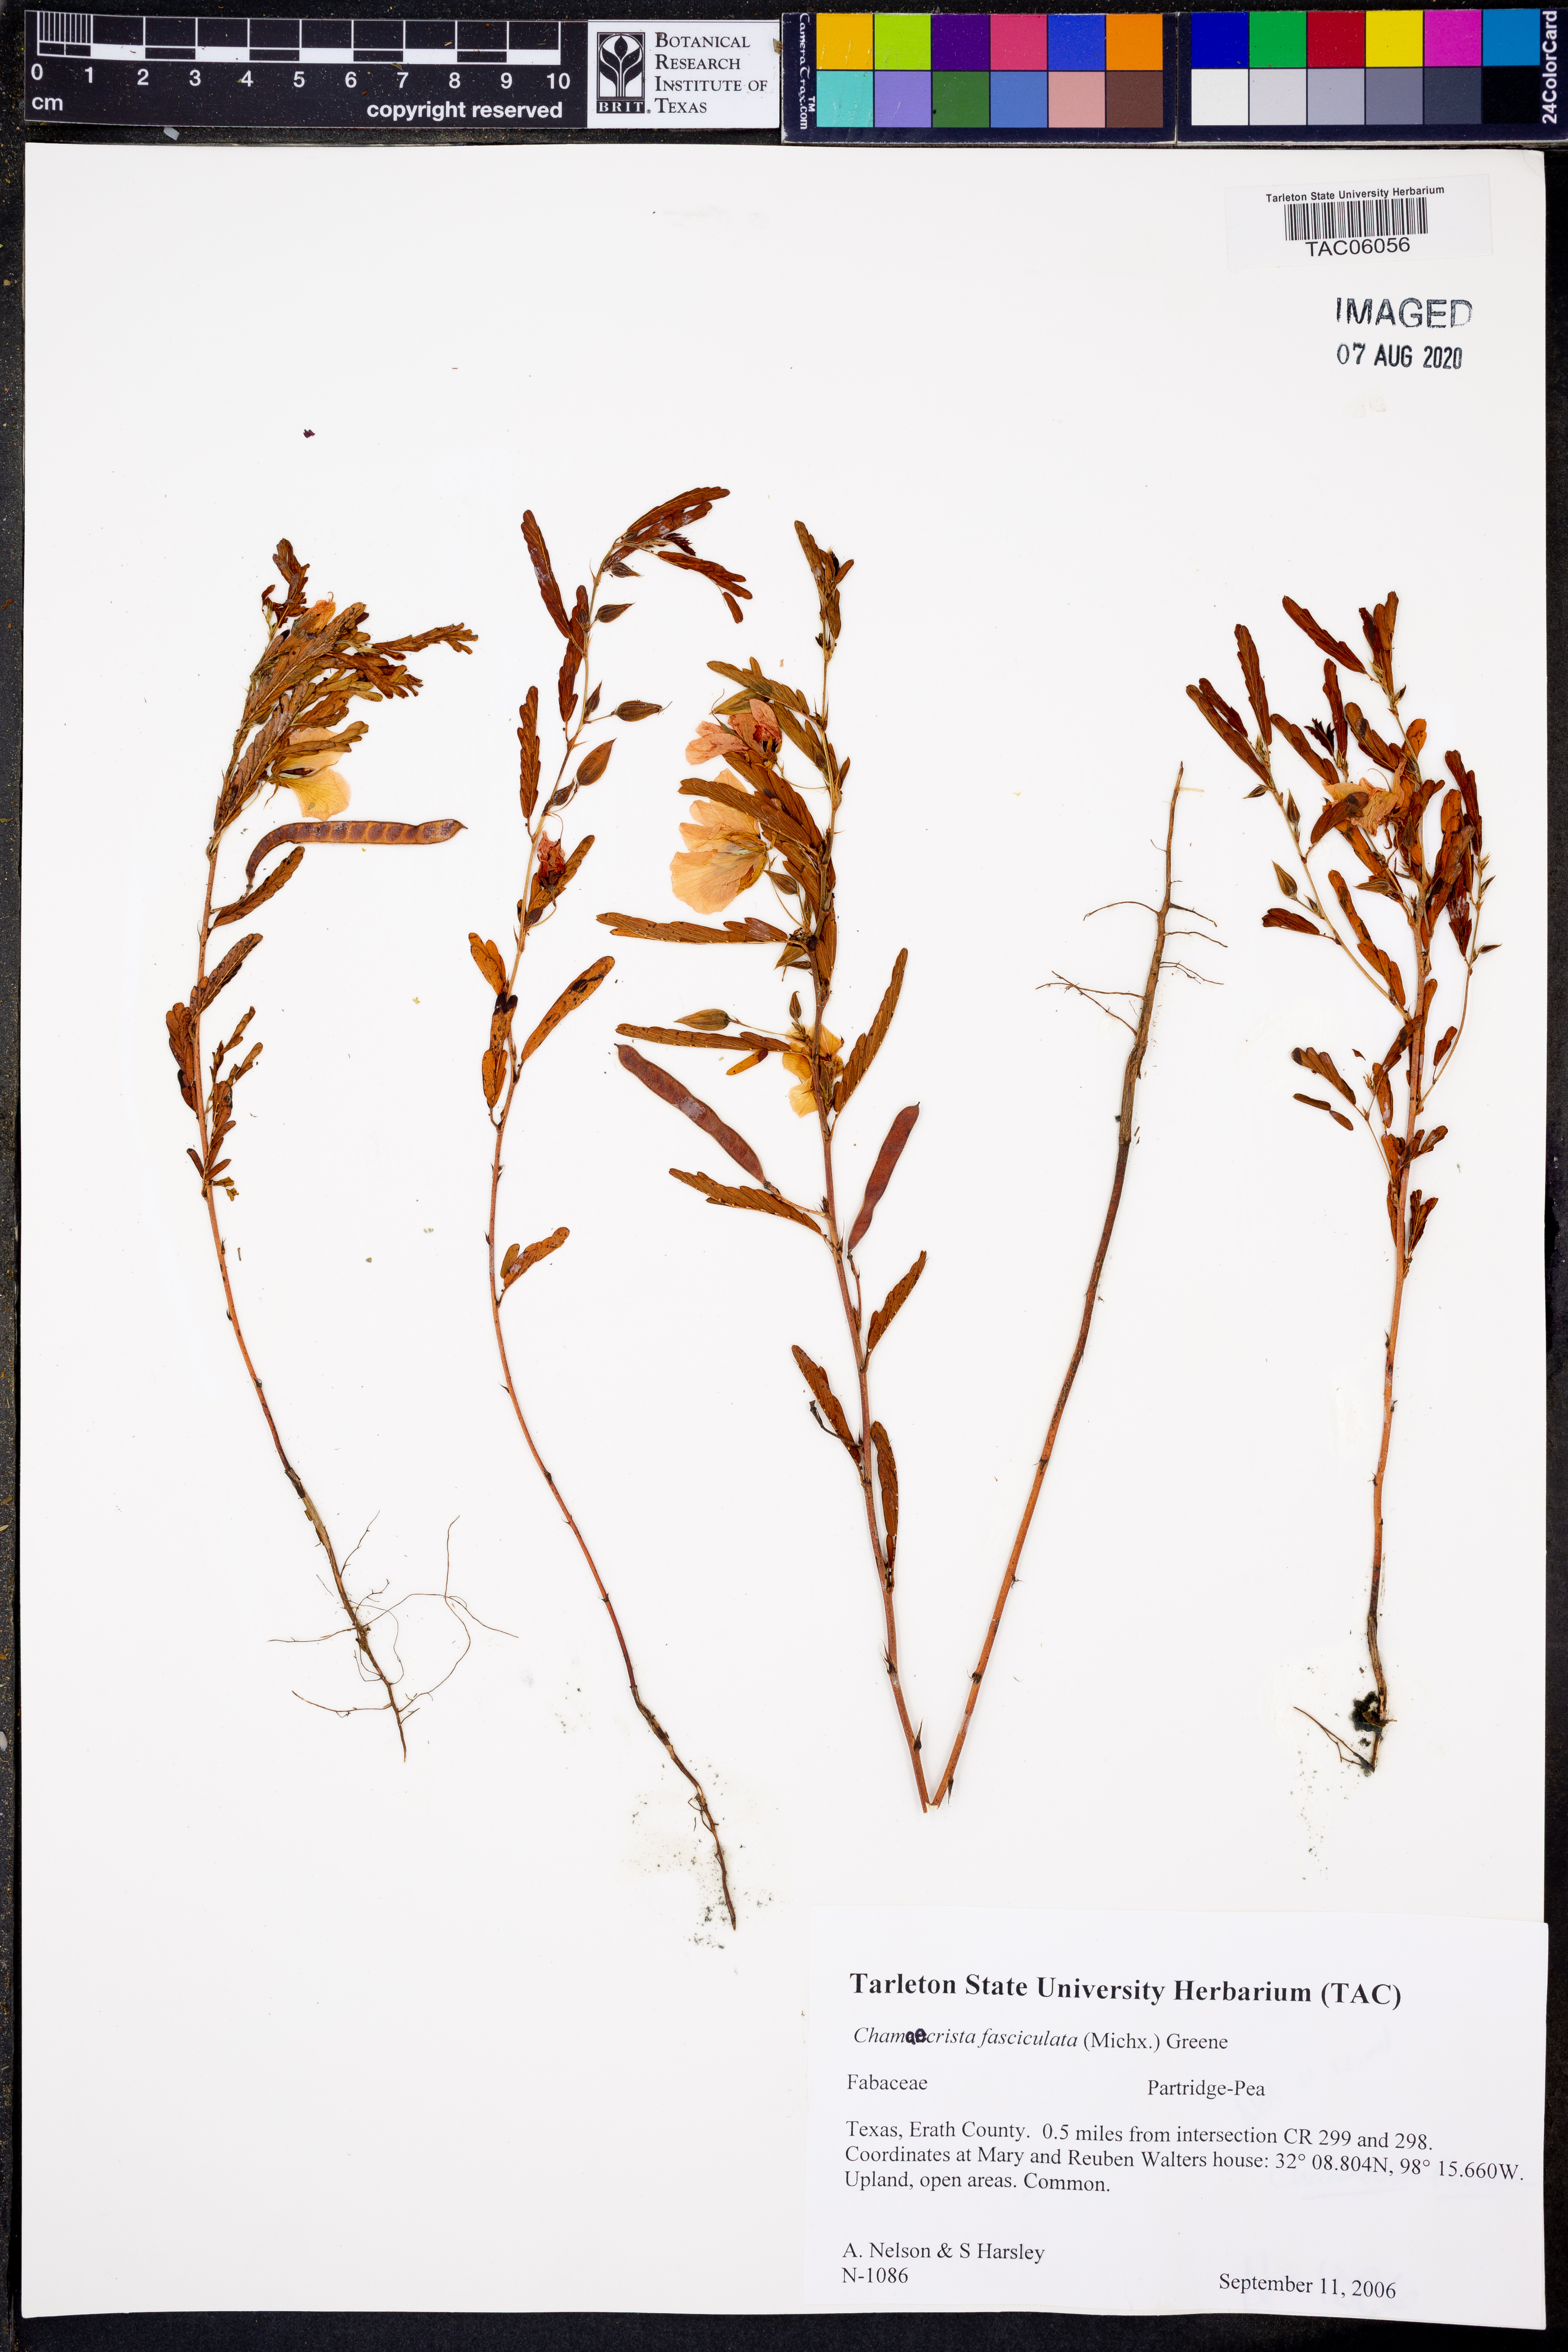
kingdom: Plantae
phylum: Tracheophyta
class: Magnoliopsida
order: Fabales
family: Fabaceae
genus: Chamaecrista
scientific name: Chamaecrista fasciculata
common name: Golden cassia
